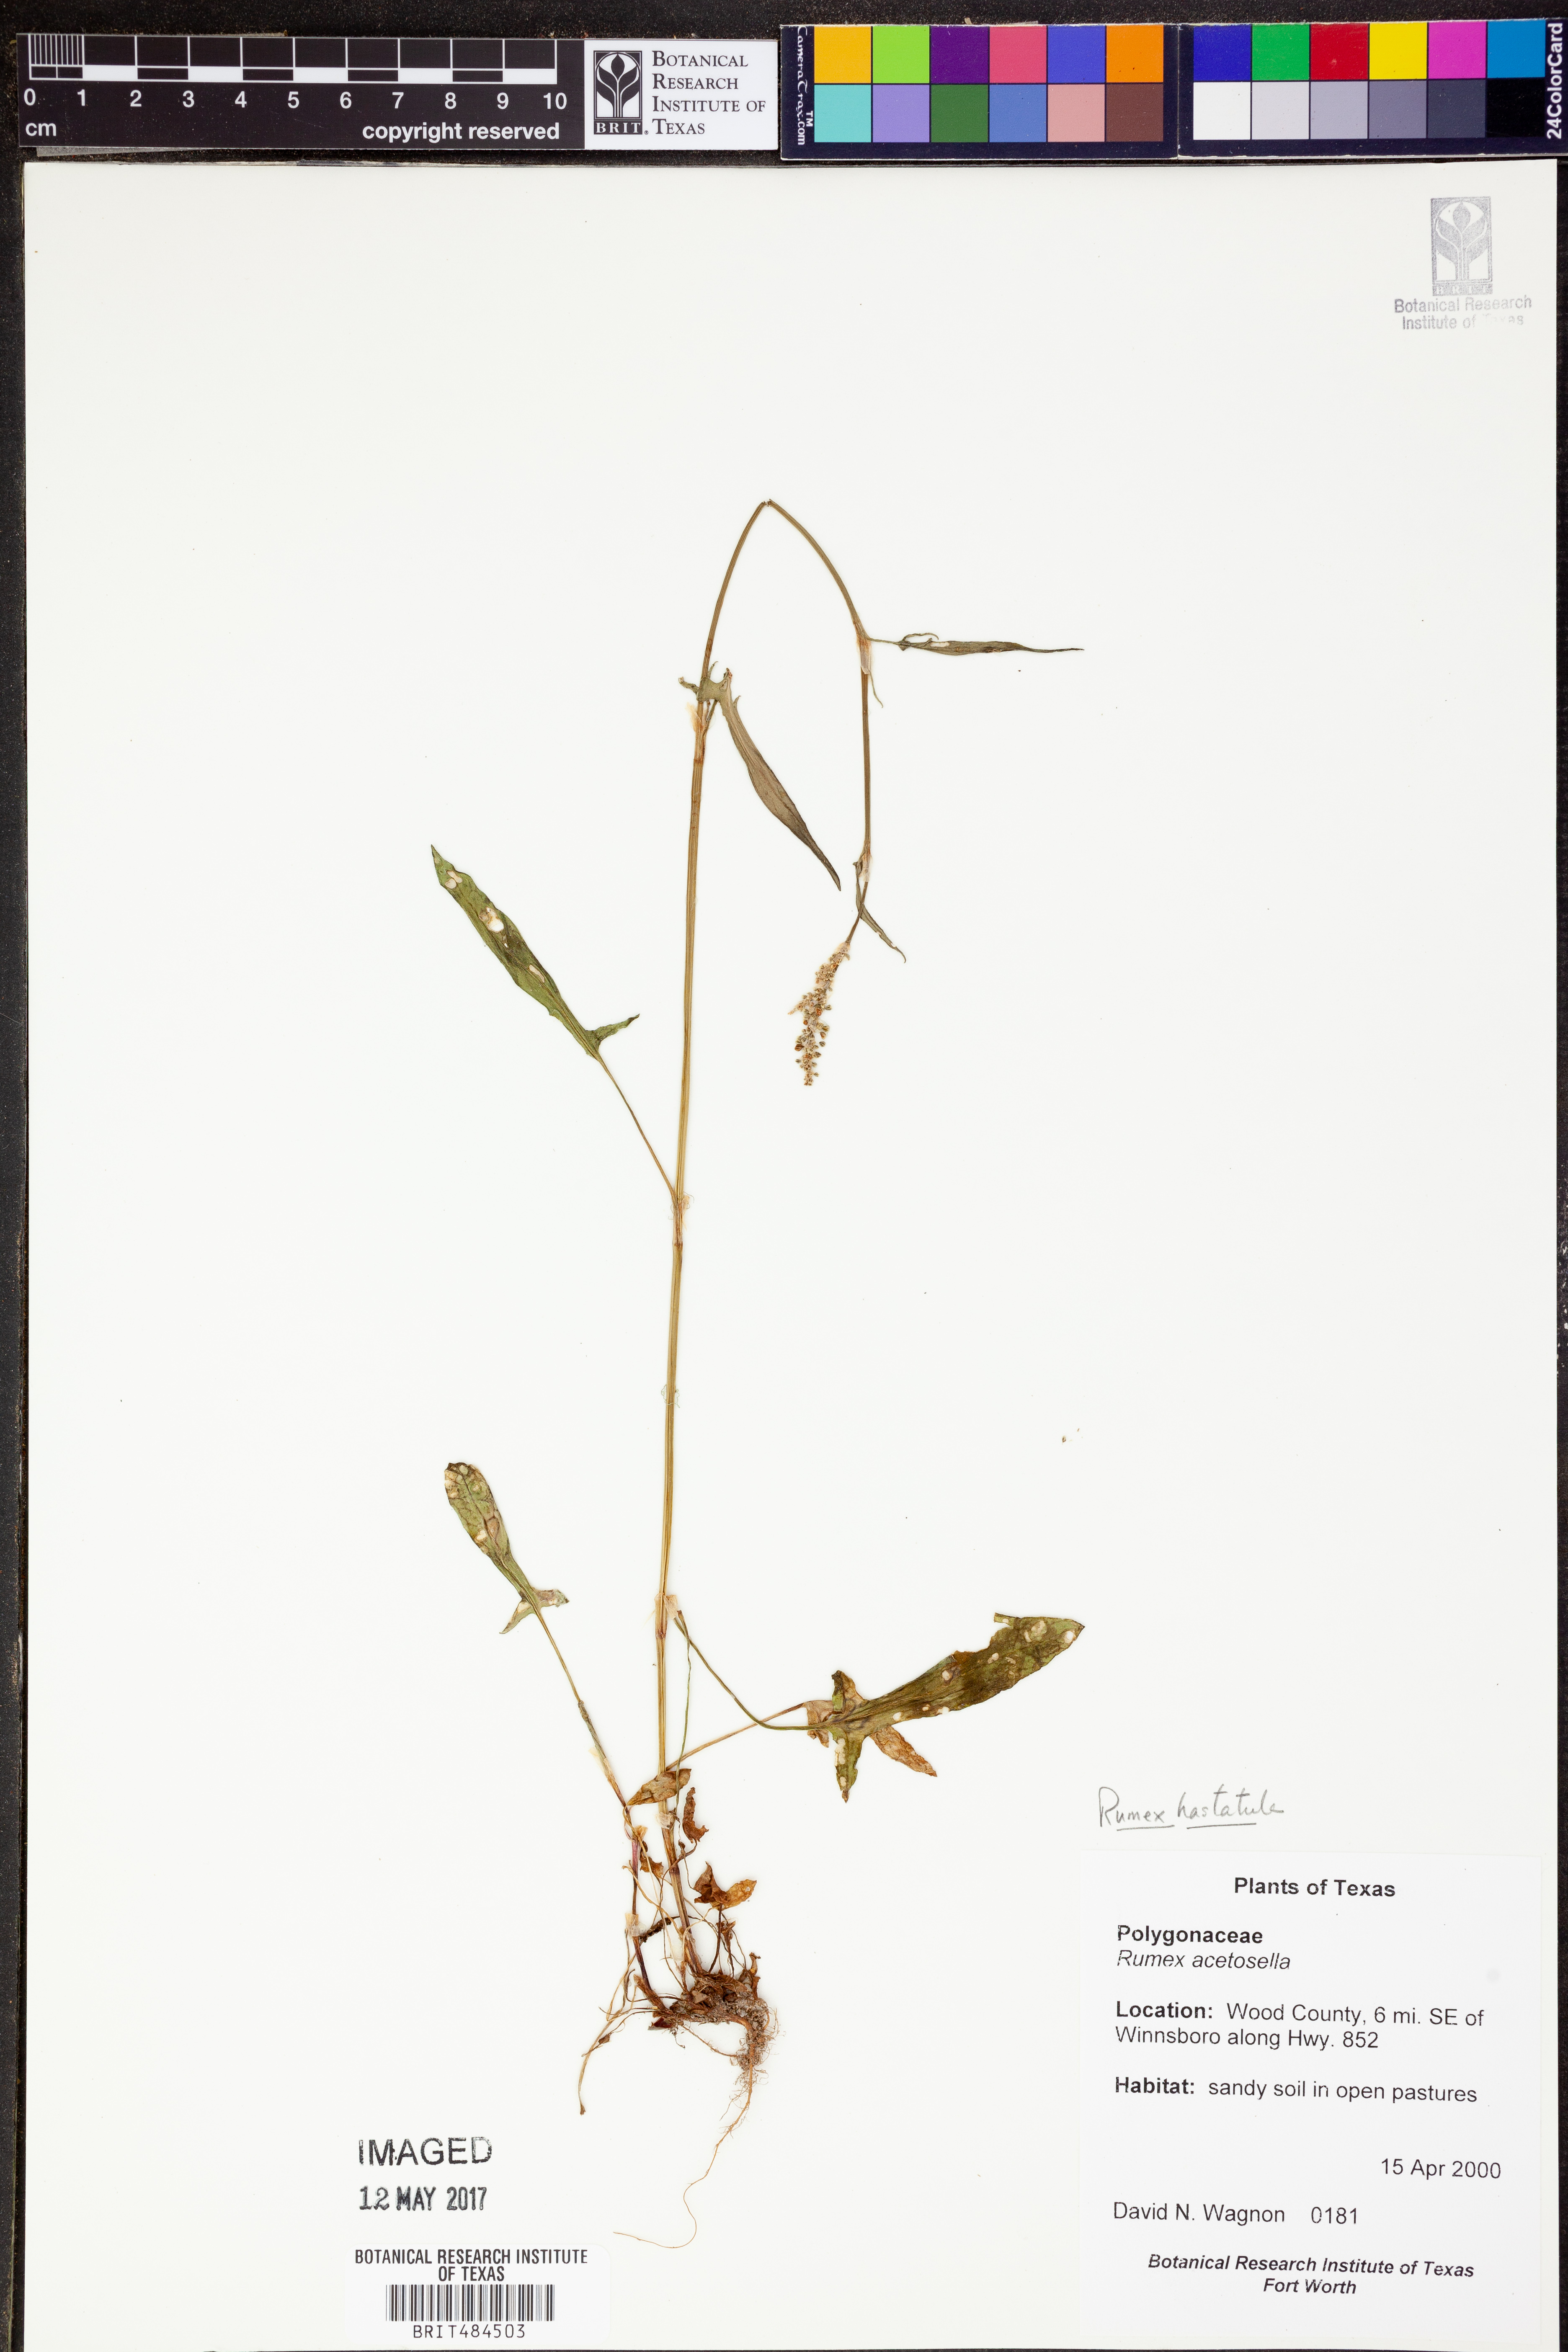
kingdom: Plantae
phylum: Tracheophyta
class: Magnoliopsida
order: Caryophyllales
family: Polygonaceae
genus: Rumex
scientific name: Rumex acetosella
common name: Common sheep sorrel
